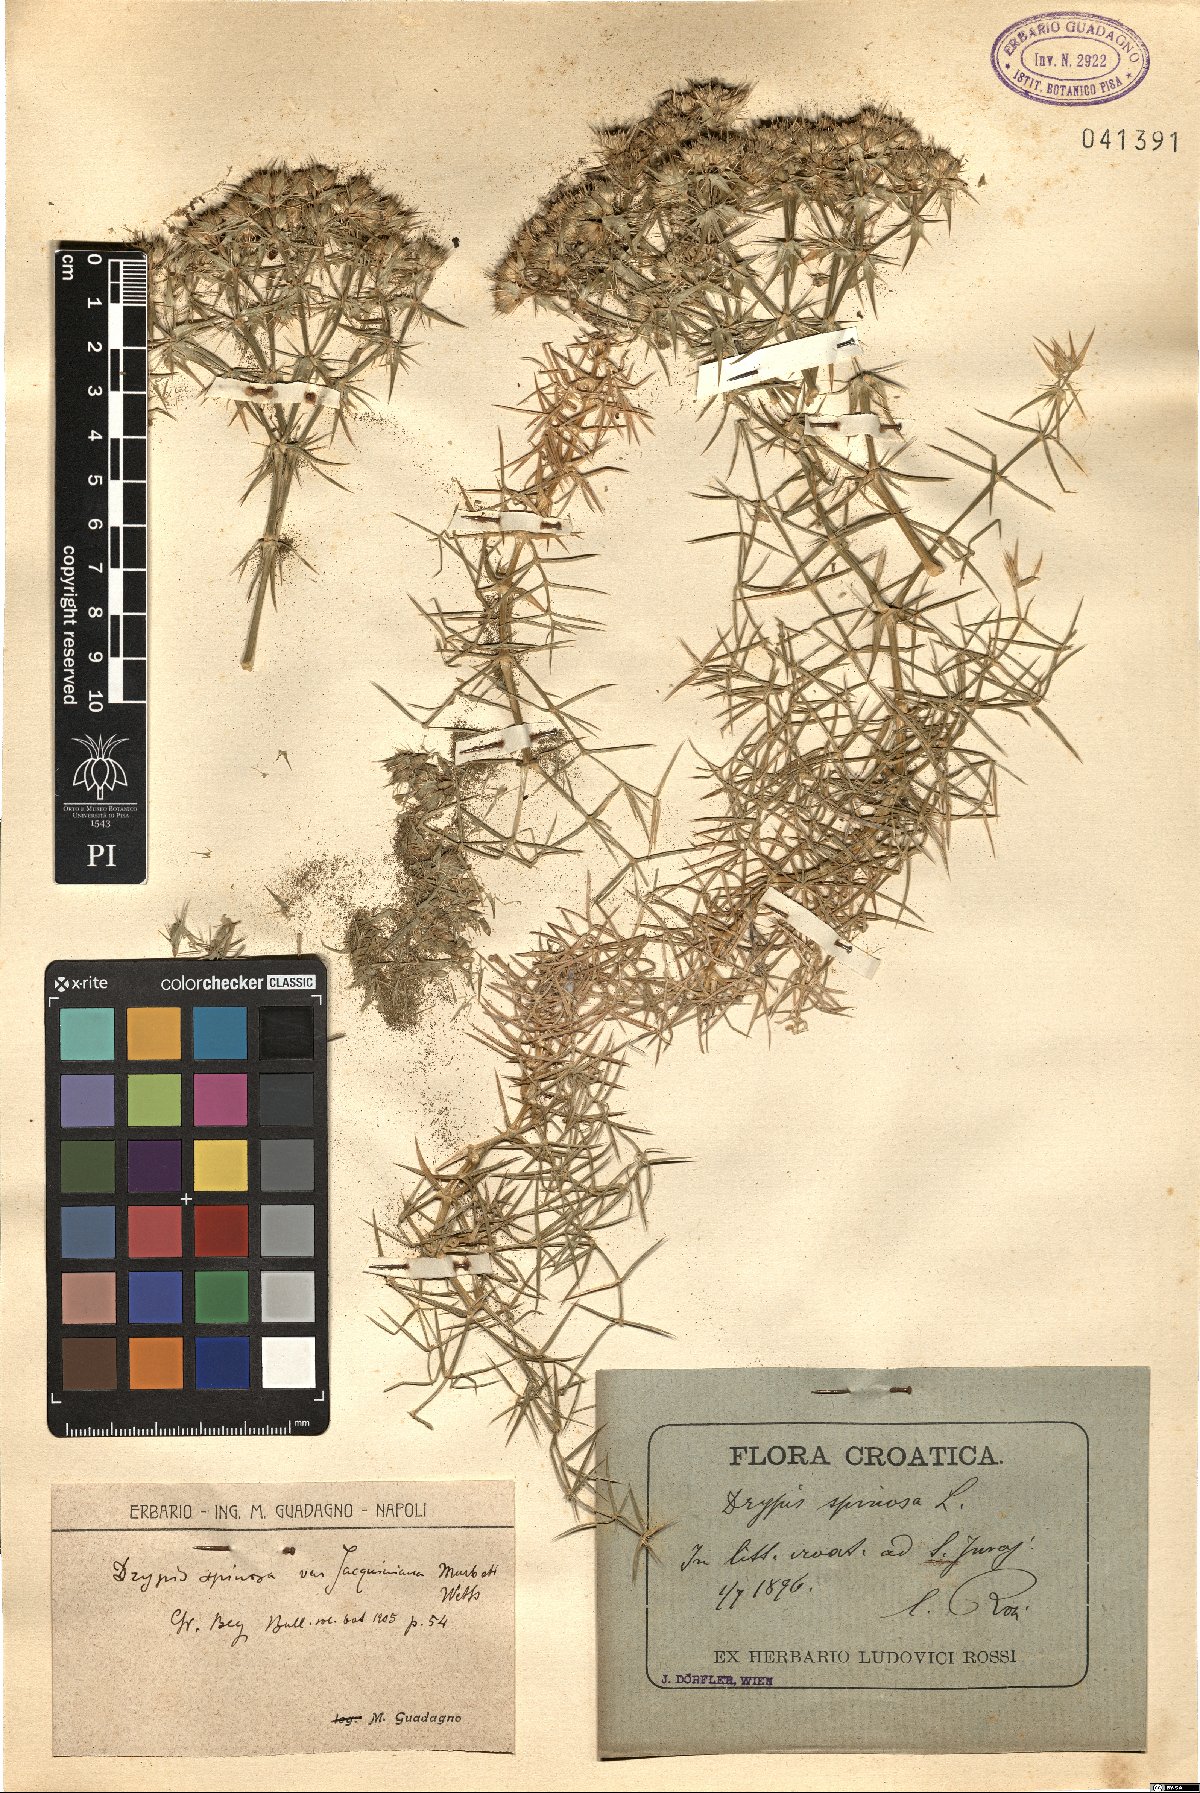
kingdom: Plantae
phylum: Tracheophyta
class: Magnoliopsida
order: Caryophyllales
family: Caryophyllaceae
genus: Drypis
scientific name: Drypis spinosa
